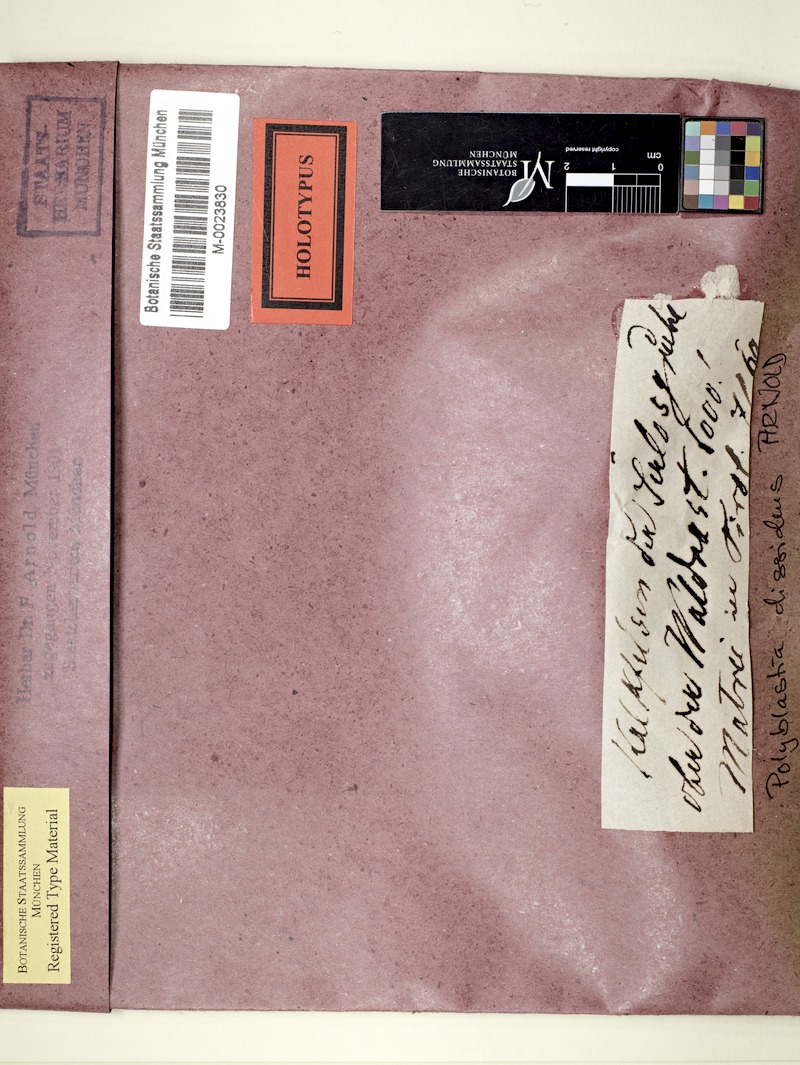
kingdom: Fungi
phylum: Ascomycota
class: Eurotiomycetes
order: Verrucariales
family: Verrucariaceae
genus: Polyblastia
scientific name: Polyblastia
